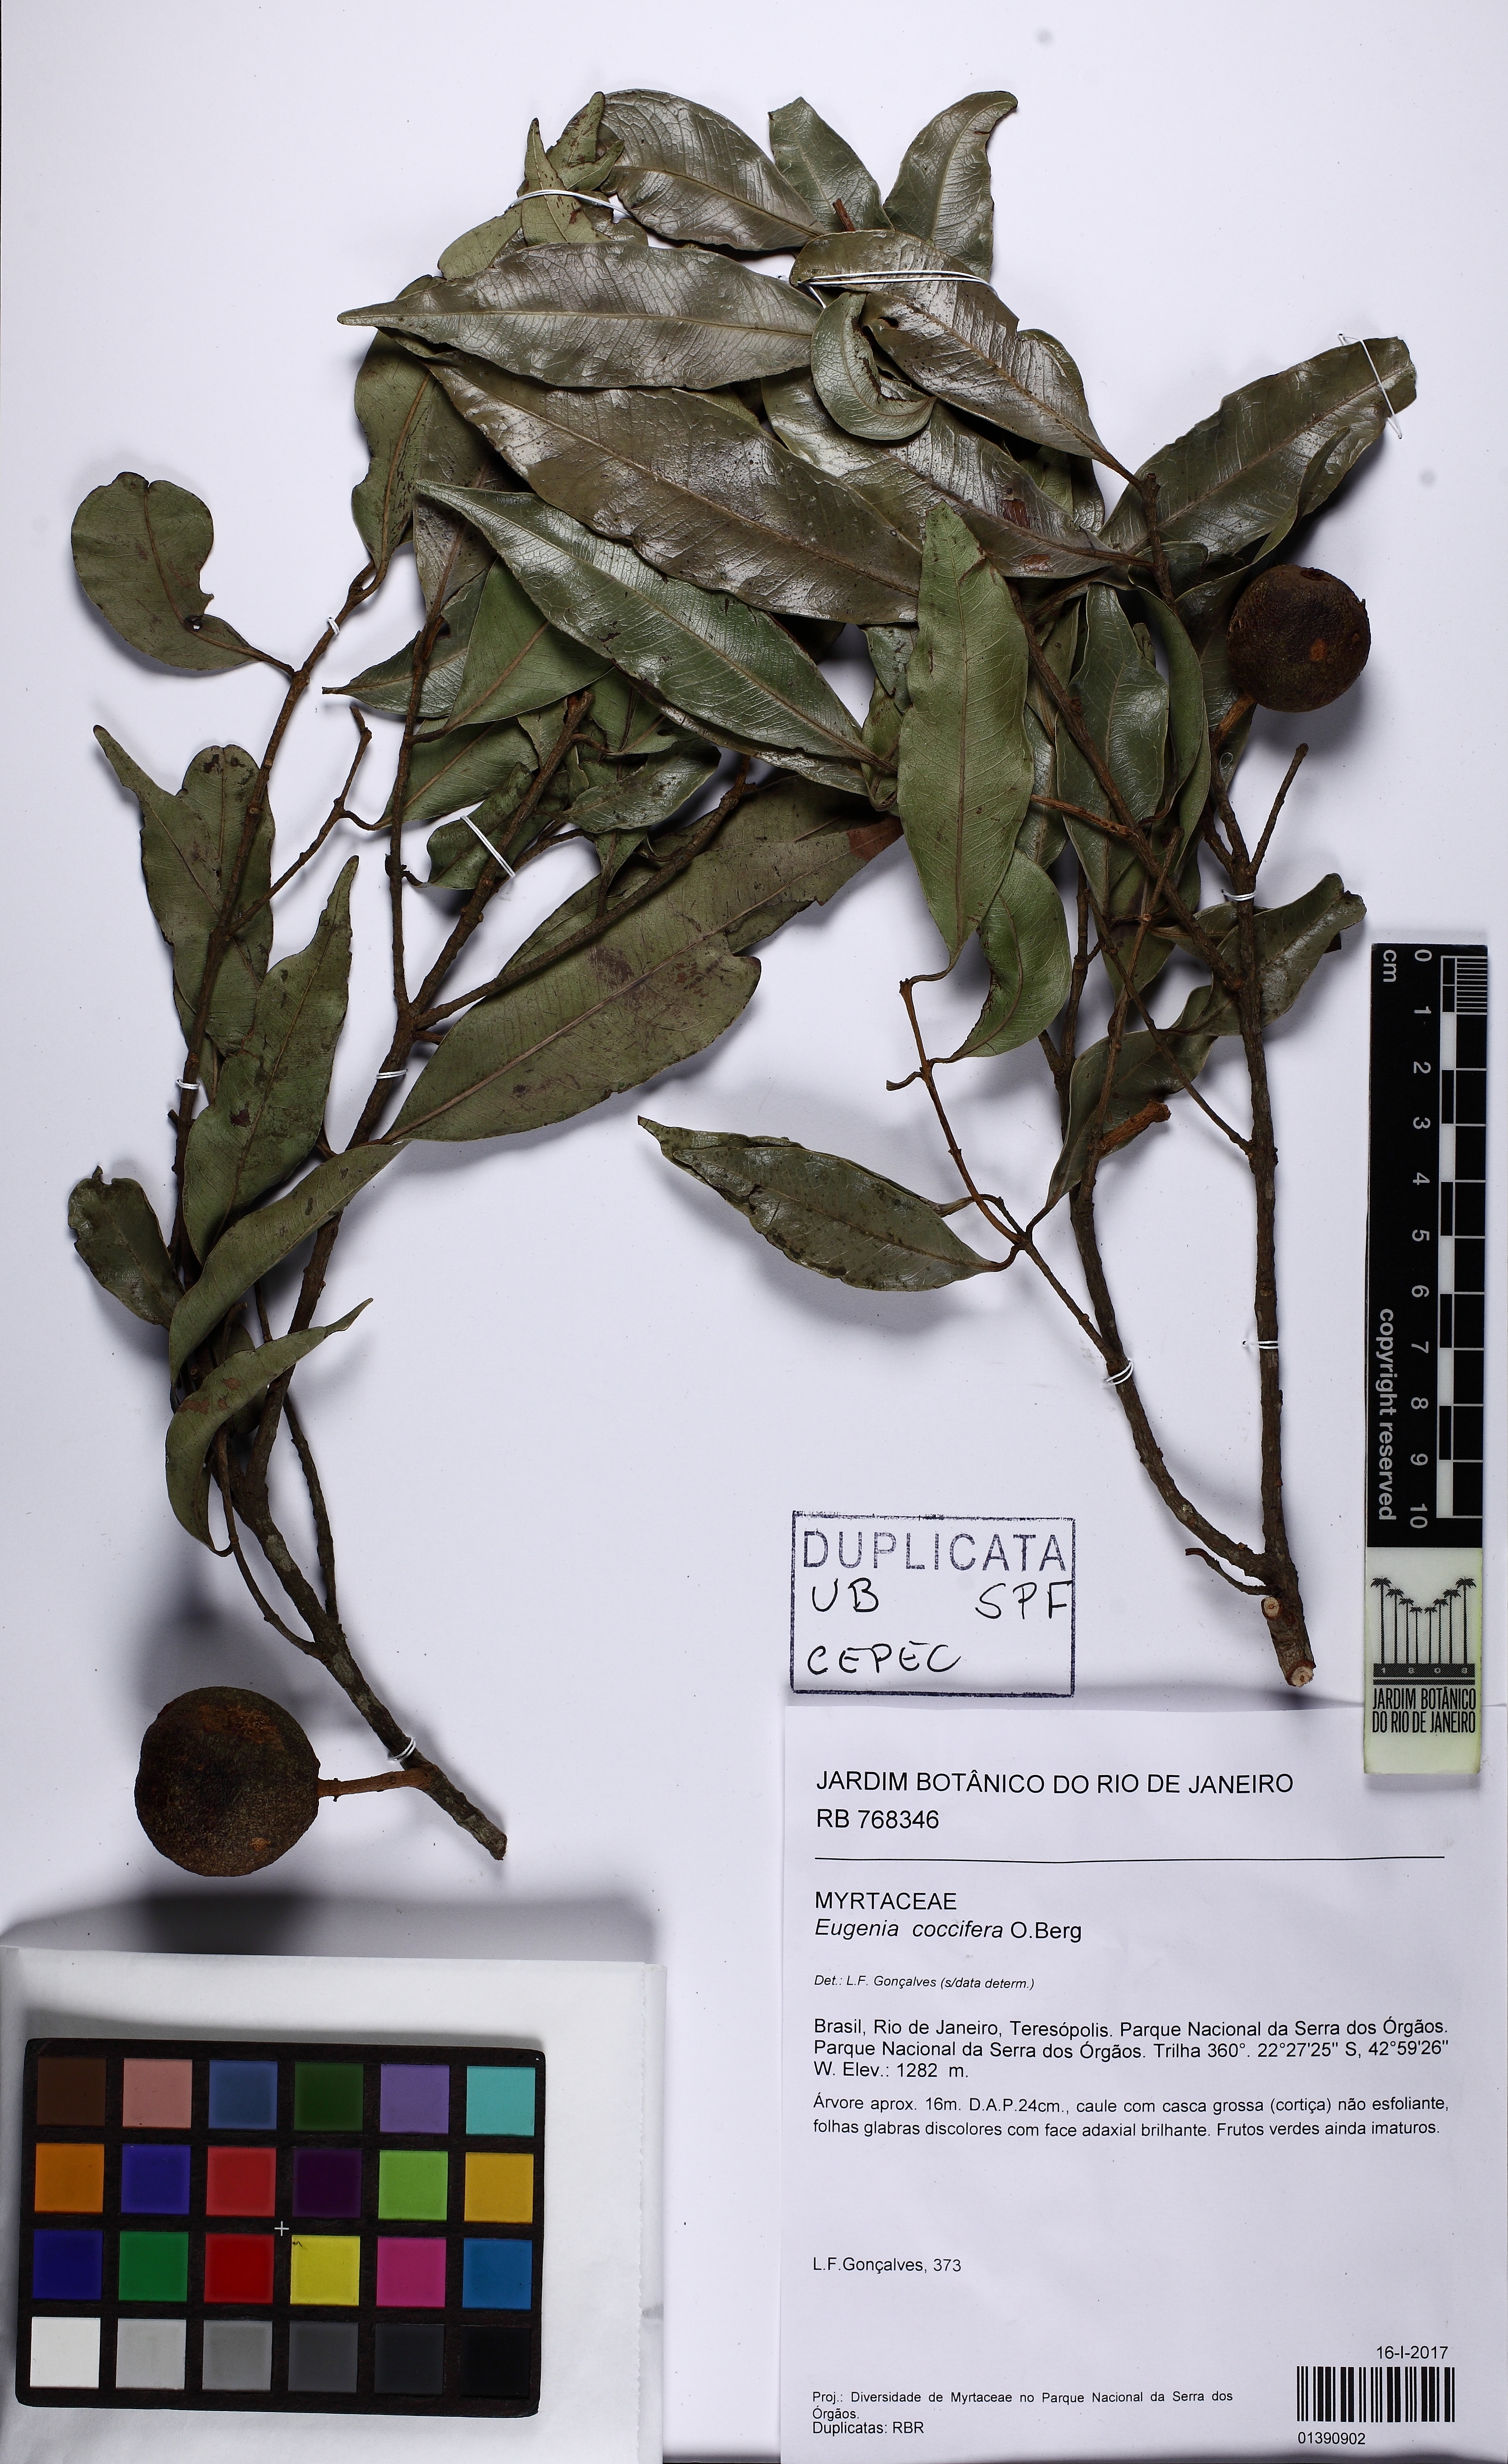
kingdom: Plantae
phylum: Tracheophyta
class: Magnoliopsida
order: Myrtales
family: Myrtaceae
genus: Eugenia
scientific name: Eugenia coccifera
